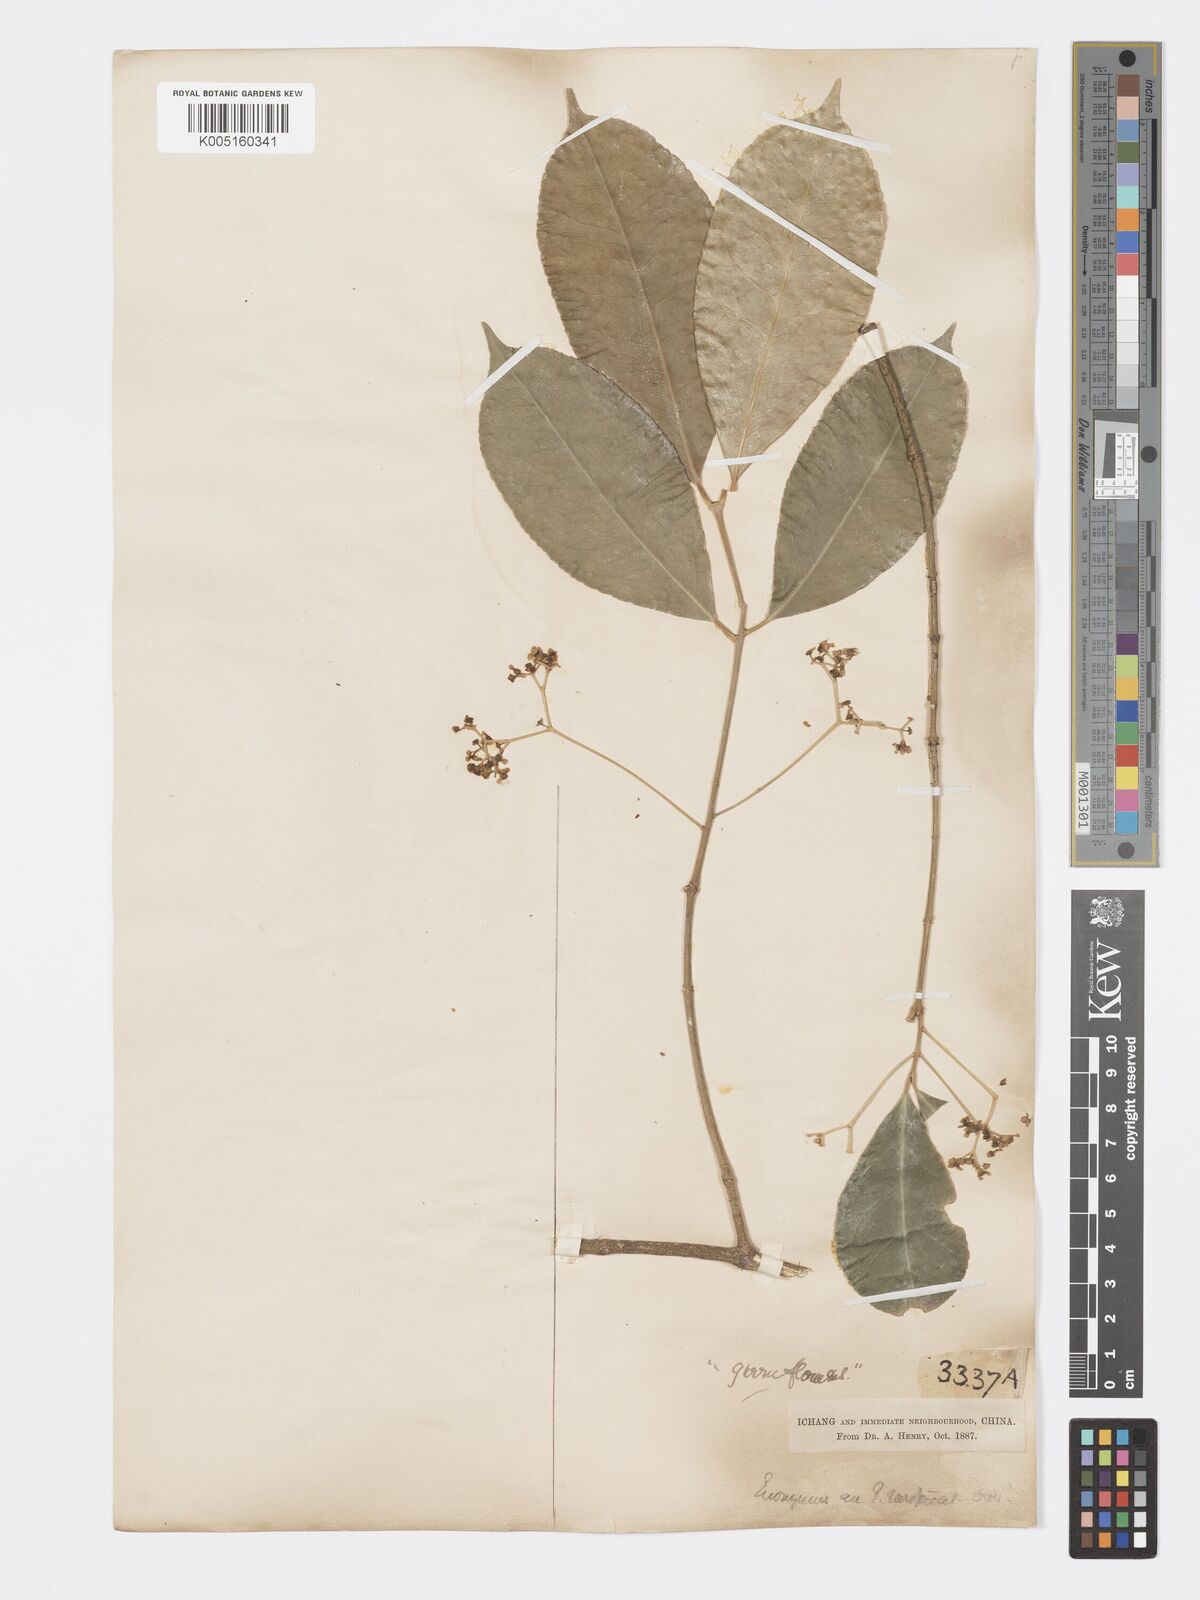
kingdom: Plantae
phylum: Tracheophyta
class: Magnoliopsida
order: Celastrales
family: Celastraceae
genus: Euonymus
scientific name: Euonymus
